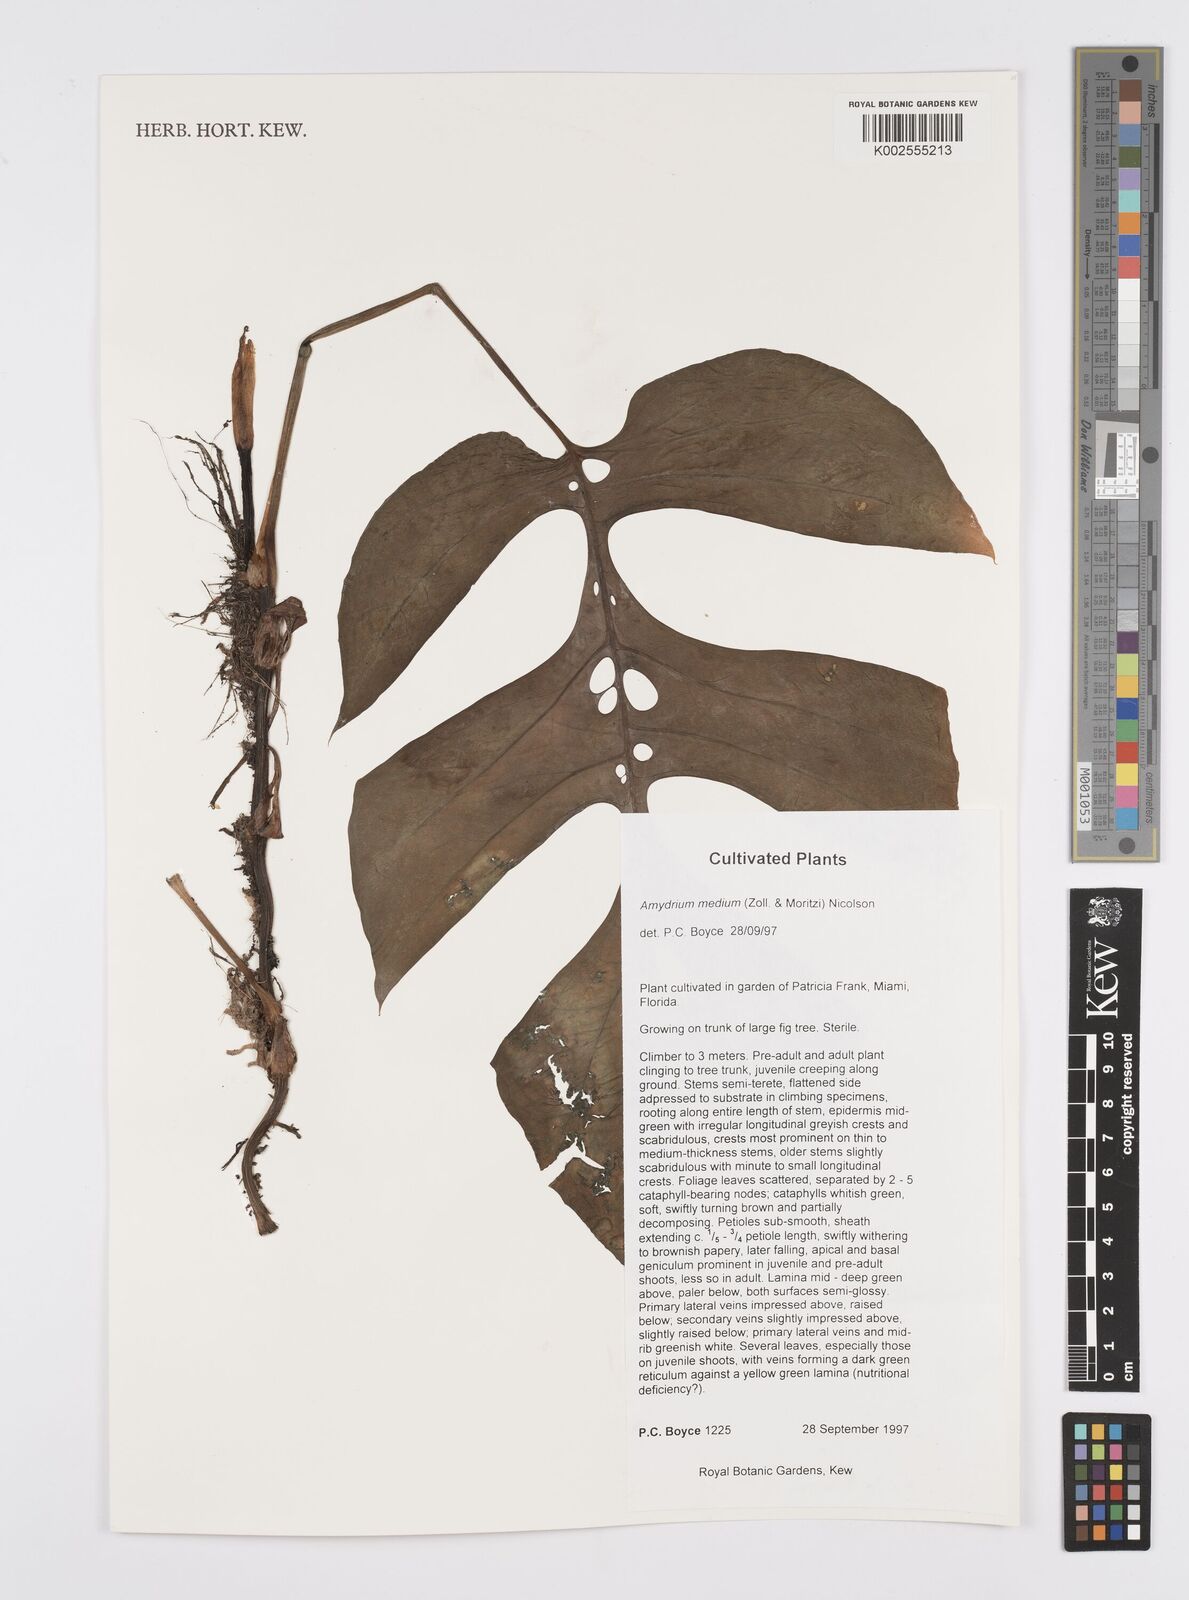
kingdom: Plantae
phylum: Tracheophyta
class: Liliopsida
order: Alismatales
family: Araceae
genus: Amydrium
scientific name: Amydrium medium
